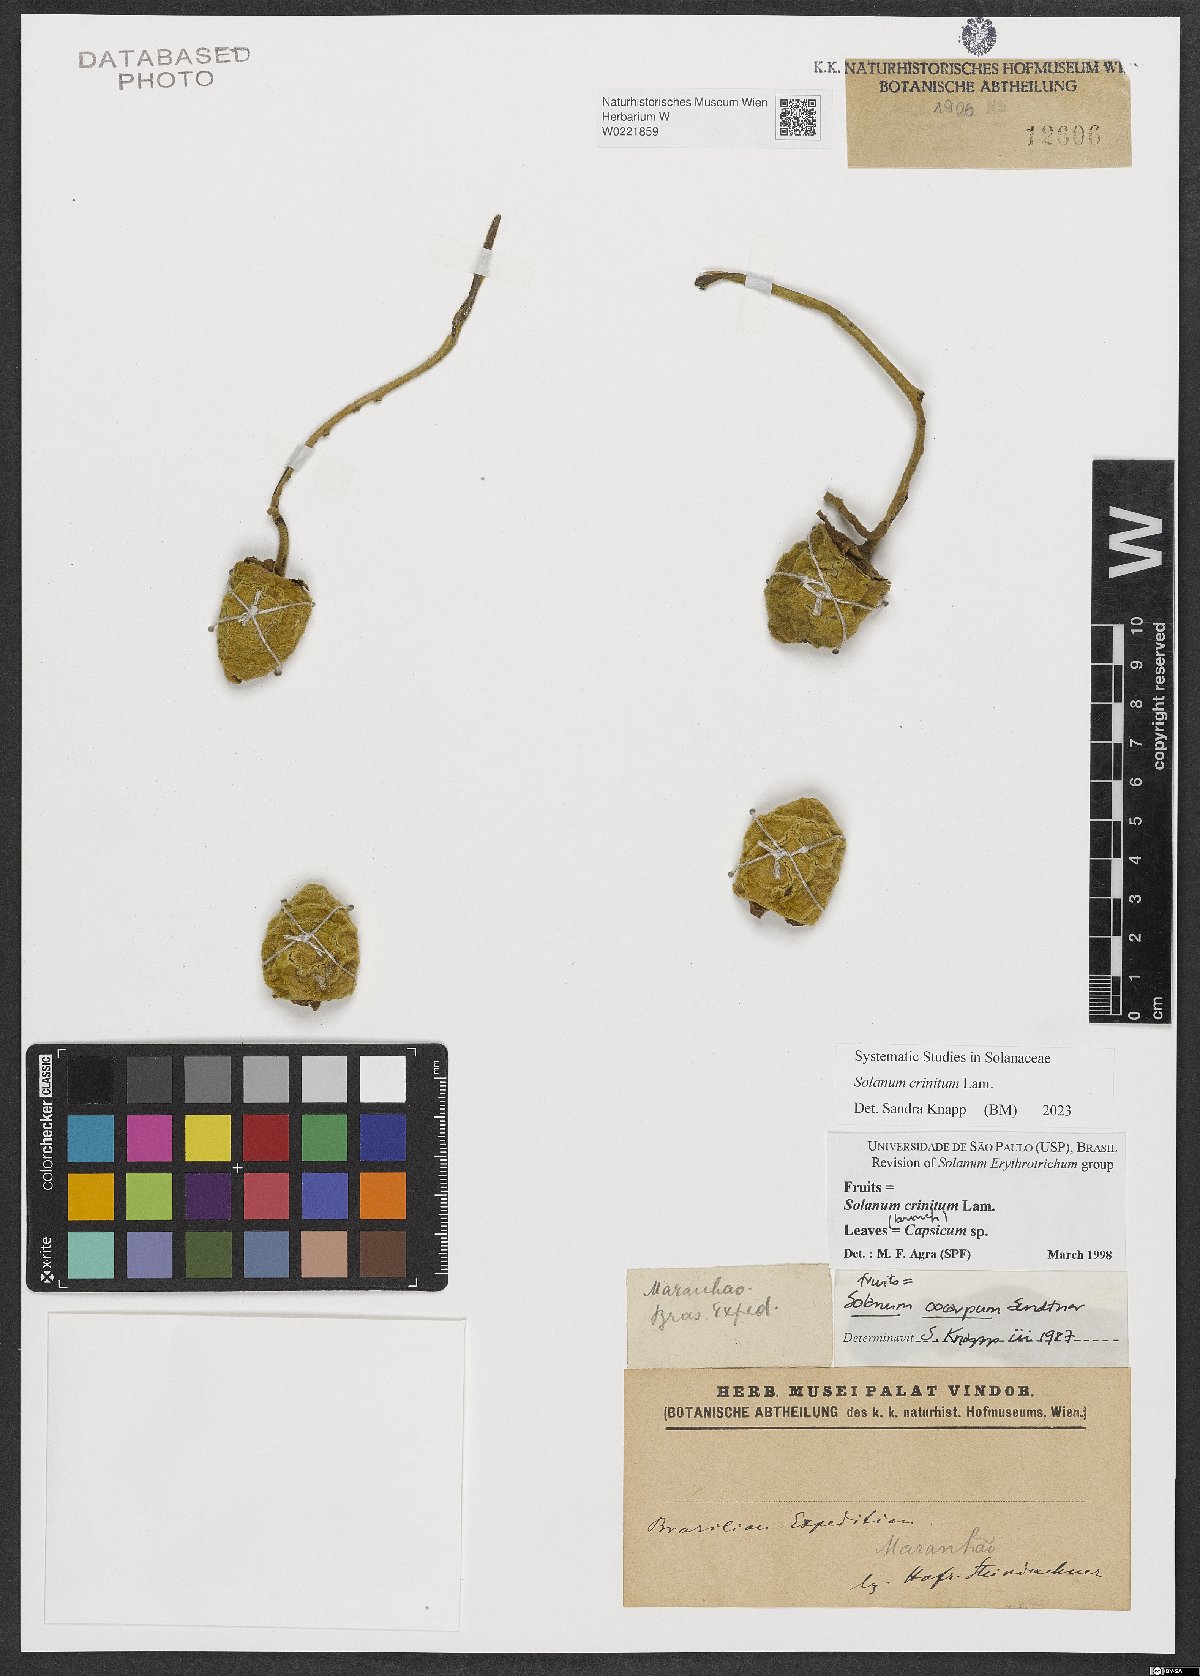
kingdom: Plantae
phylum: Tracheophyta
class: Magnoliopsida
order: Solanales
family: Solanaceae
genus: Solanum
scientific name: Solanum crinitum
